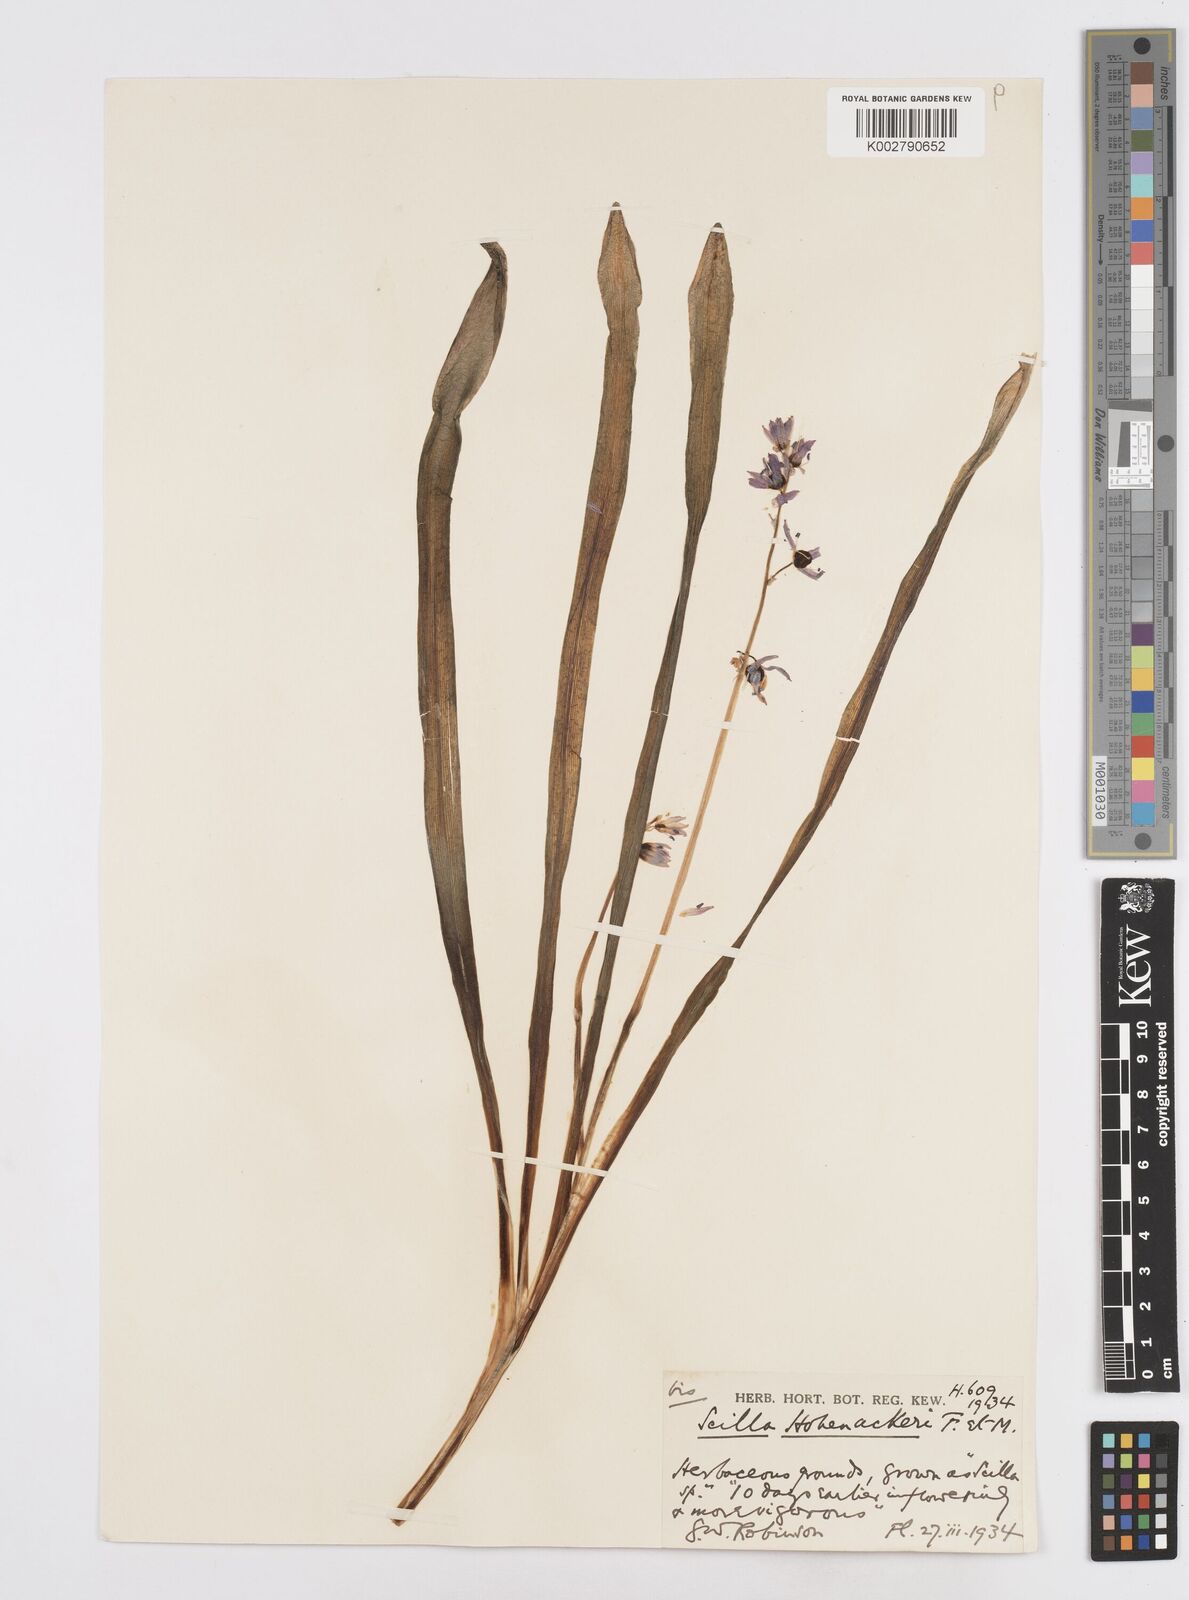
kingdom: Plantae
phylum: Tracheophyta
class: Liliopsida
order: Asparagales
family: Asparagaceae
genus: Scilla
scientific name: Scilla cilicica
